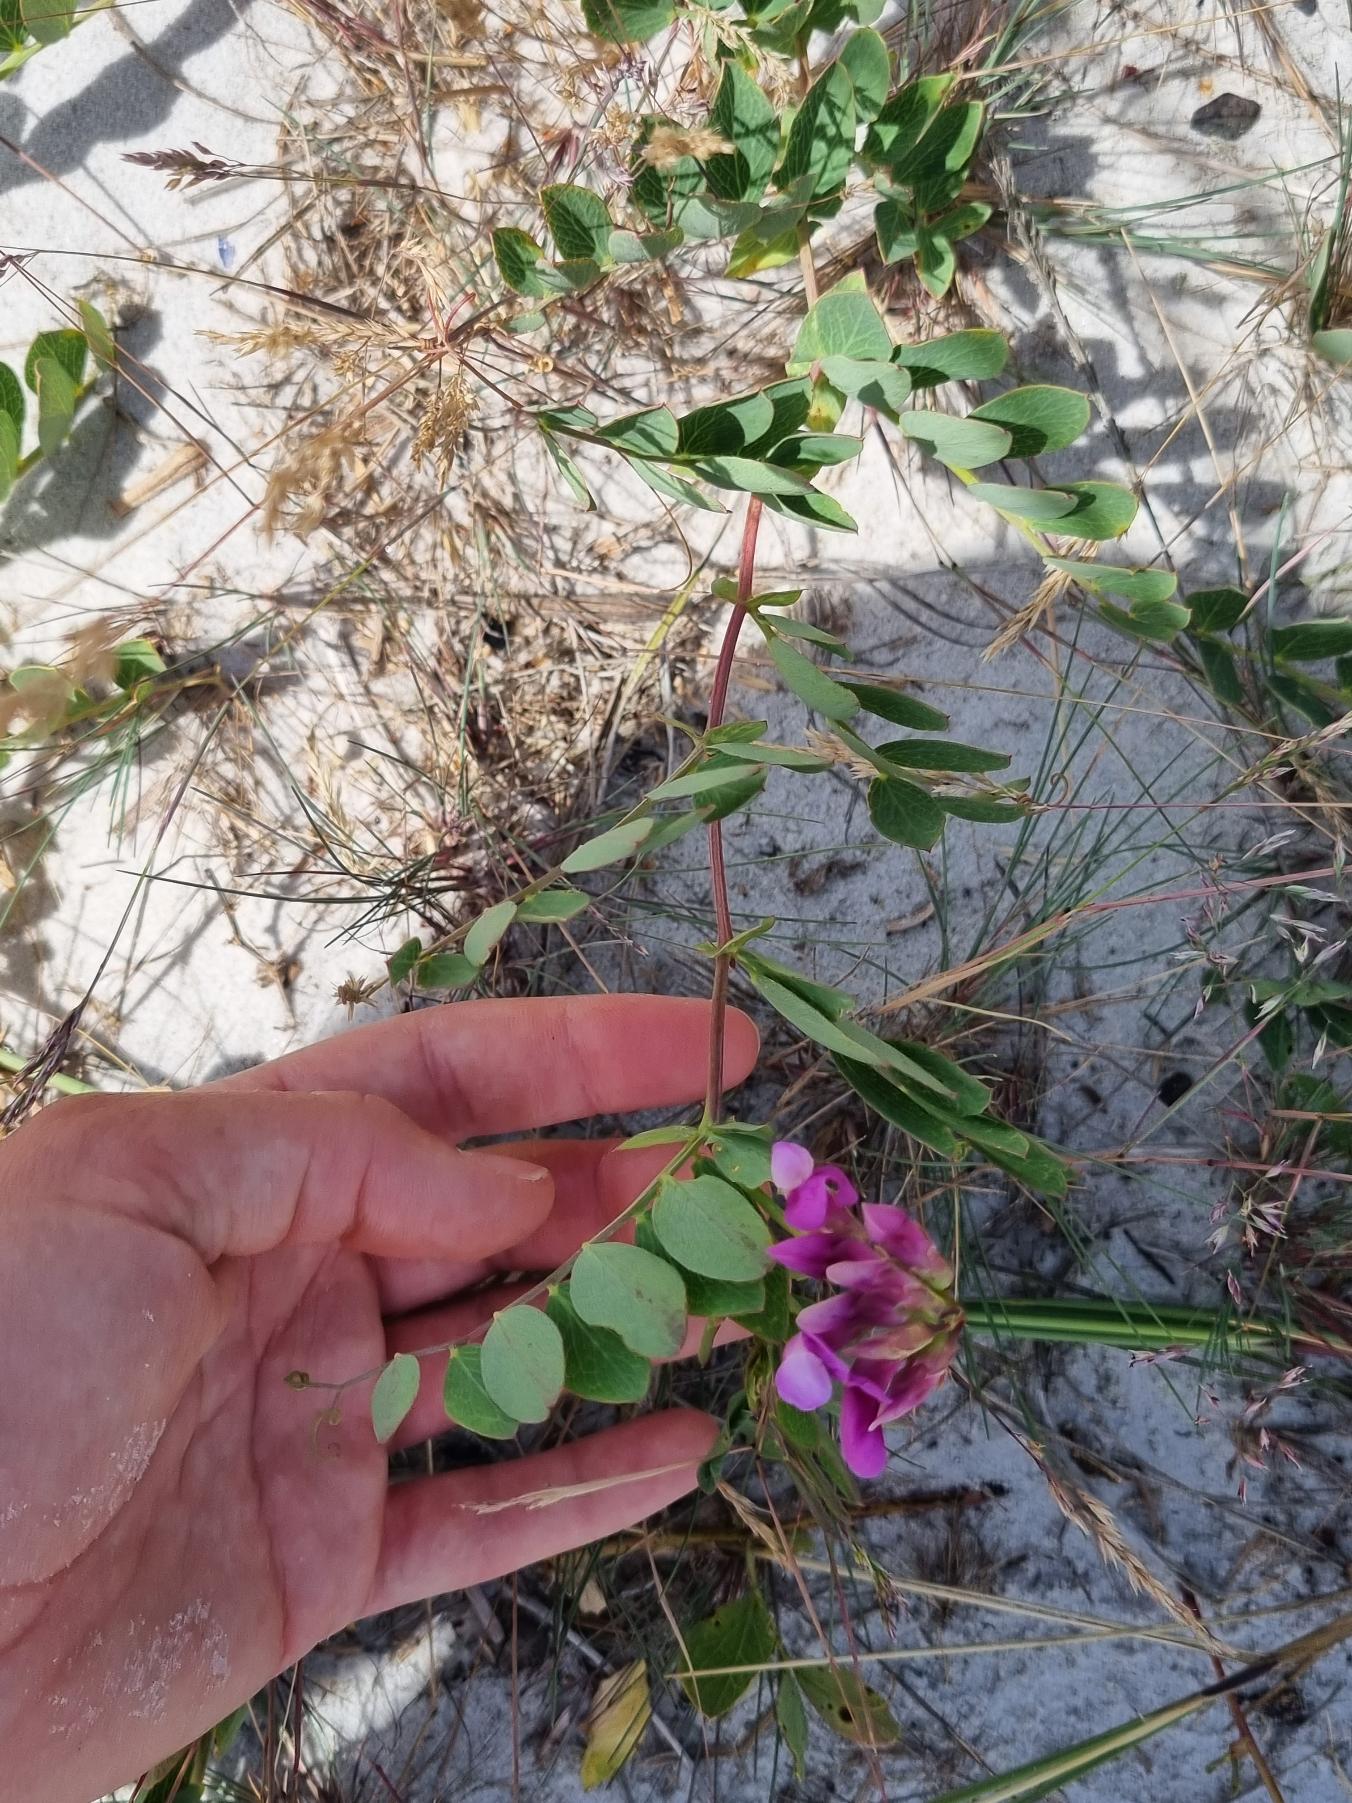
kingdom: Plantae
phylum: Tracheophyta
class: Magnoliopsida
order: Fabales
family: Fabaceae
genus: Lathyrus
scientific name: Lathyrus japonicus
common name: Strand-fladbælg
